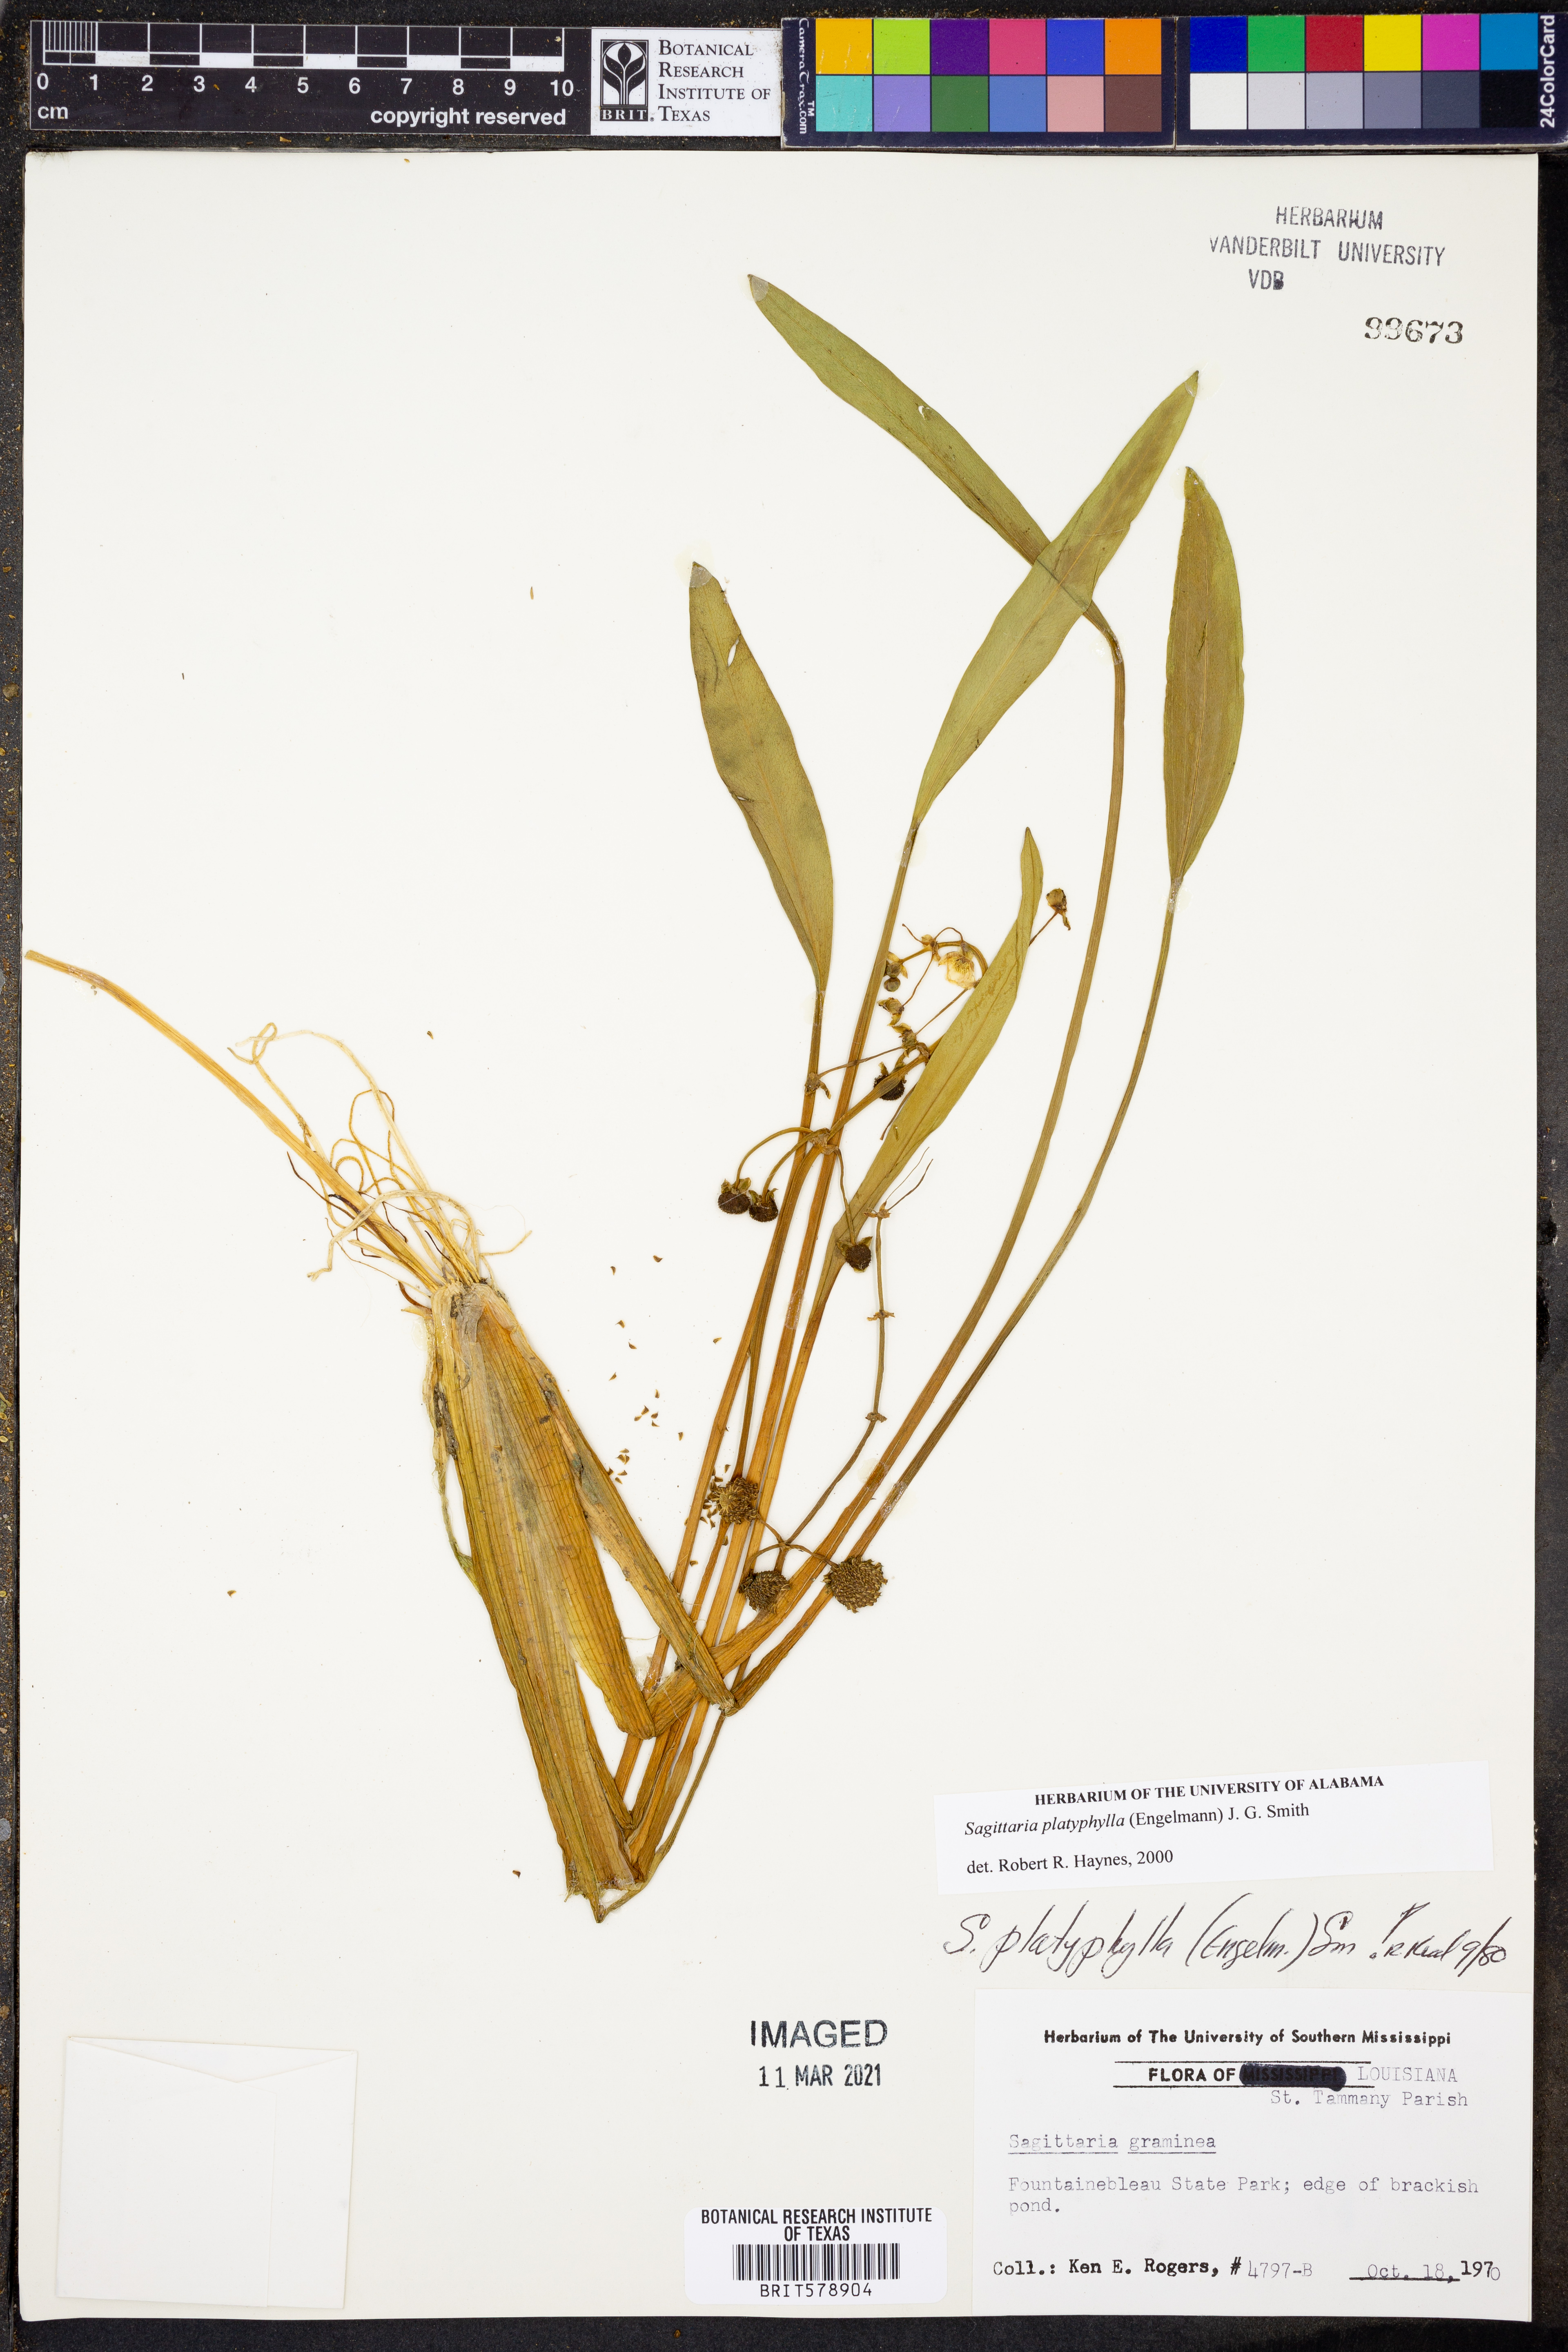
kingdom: Plantae
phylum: Tracheophyta
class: Liliopsida
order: Alismatales
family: Alismataceae
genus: Sagittaria
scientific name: Sagittaria platyphylla
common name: Broad-leaf arrowhead
